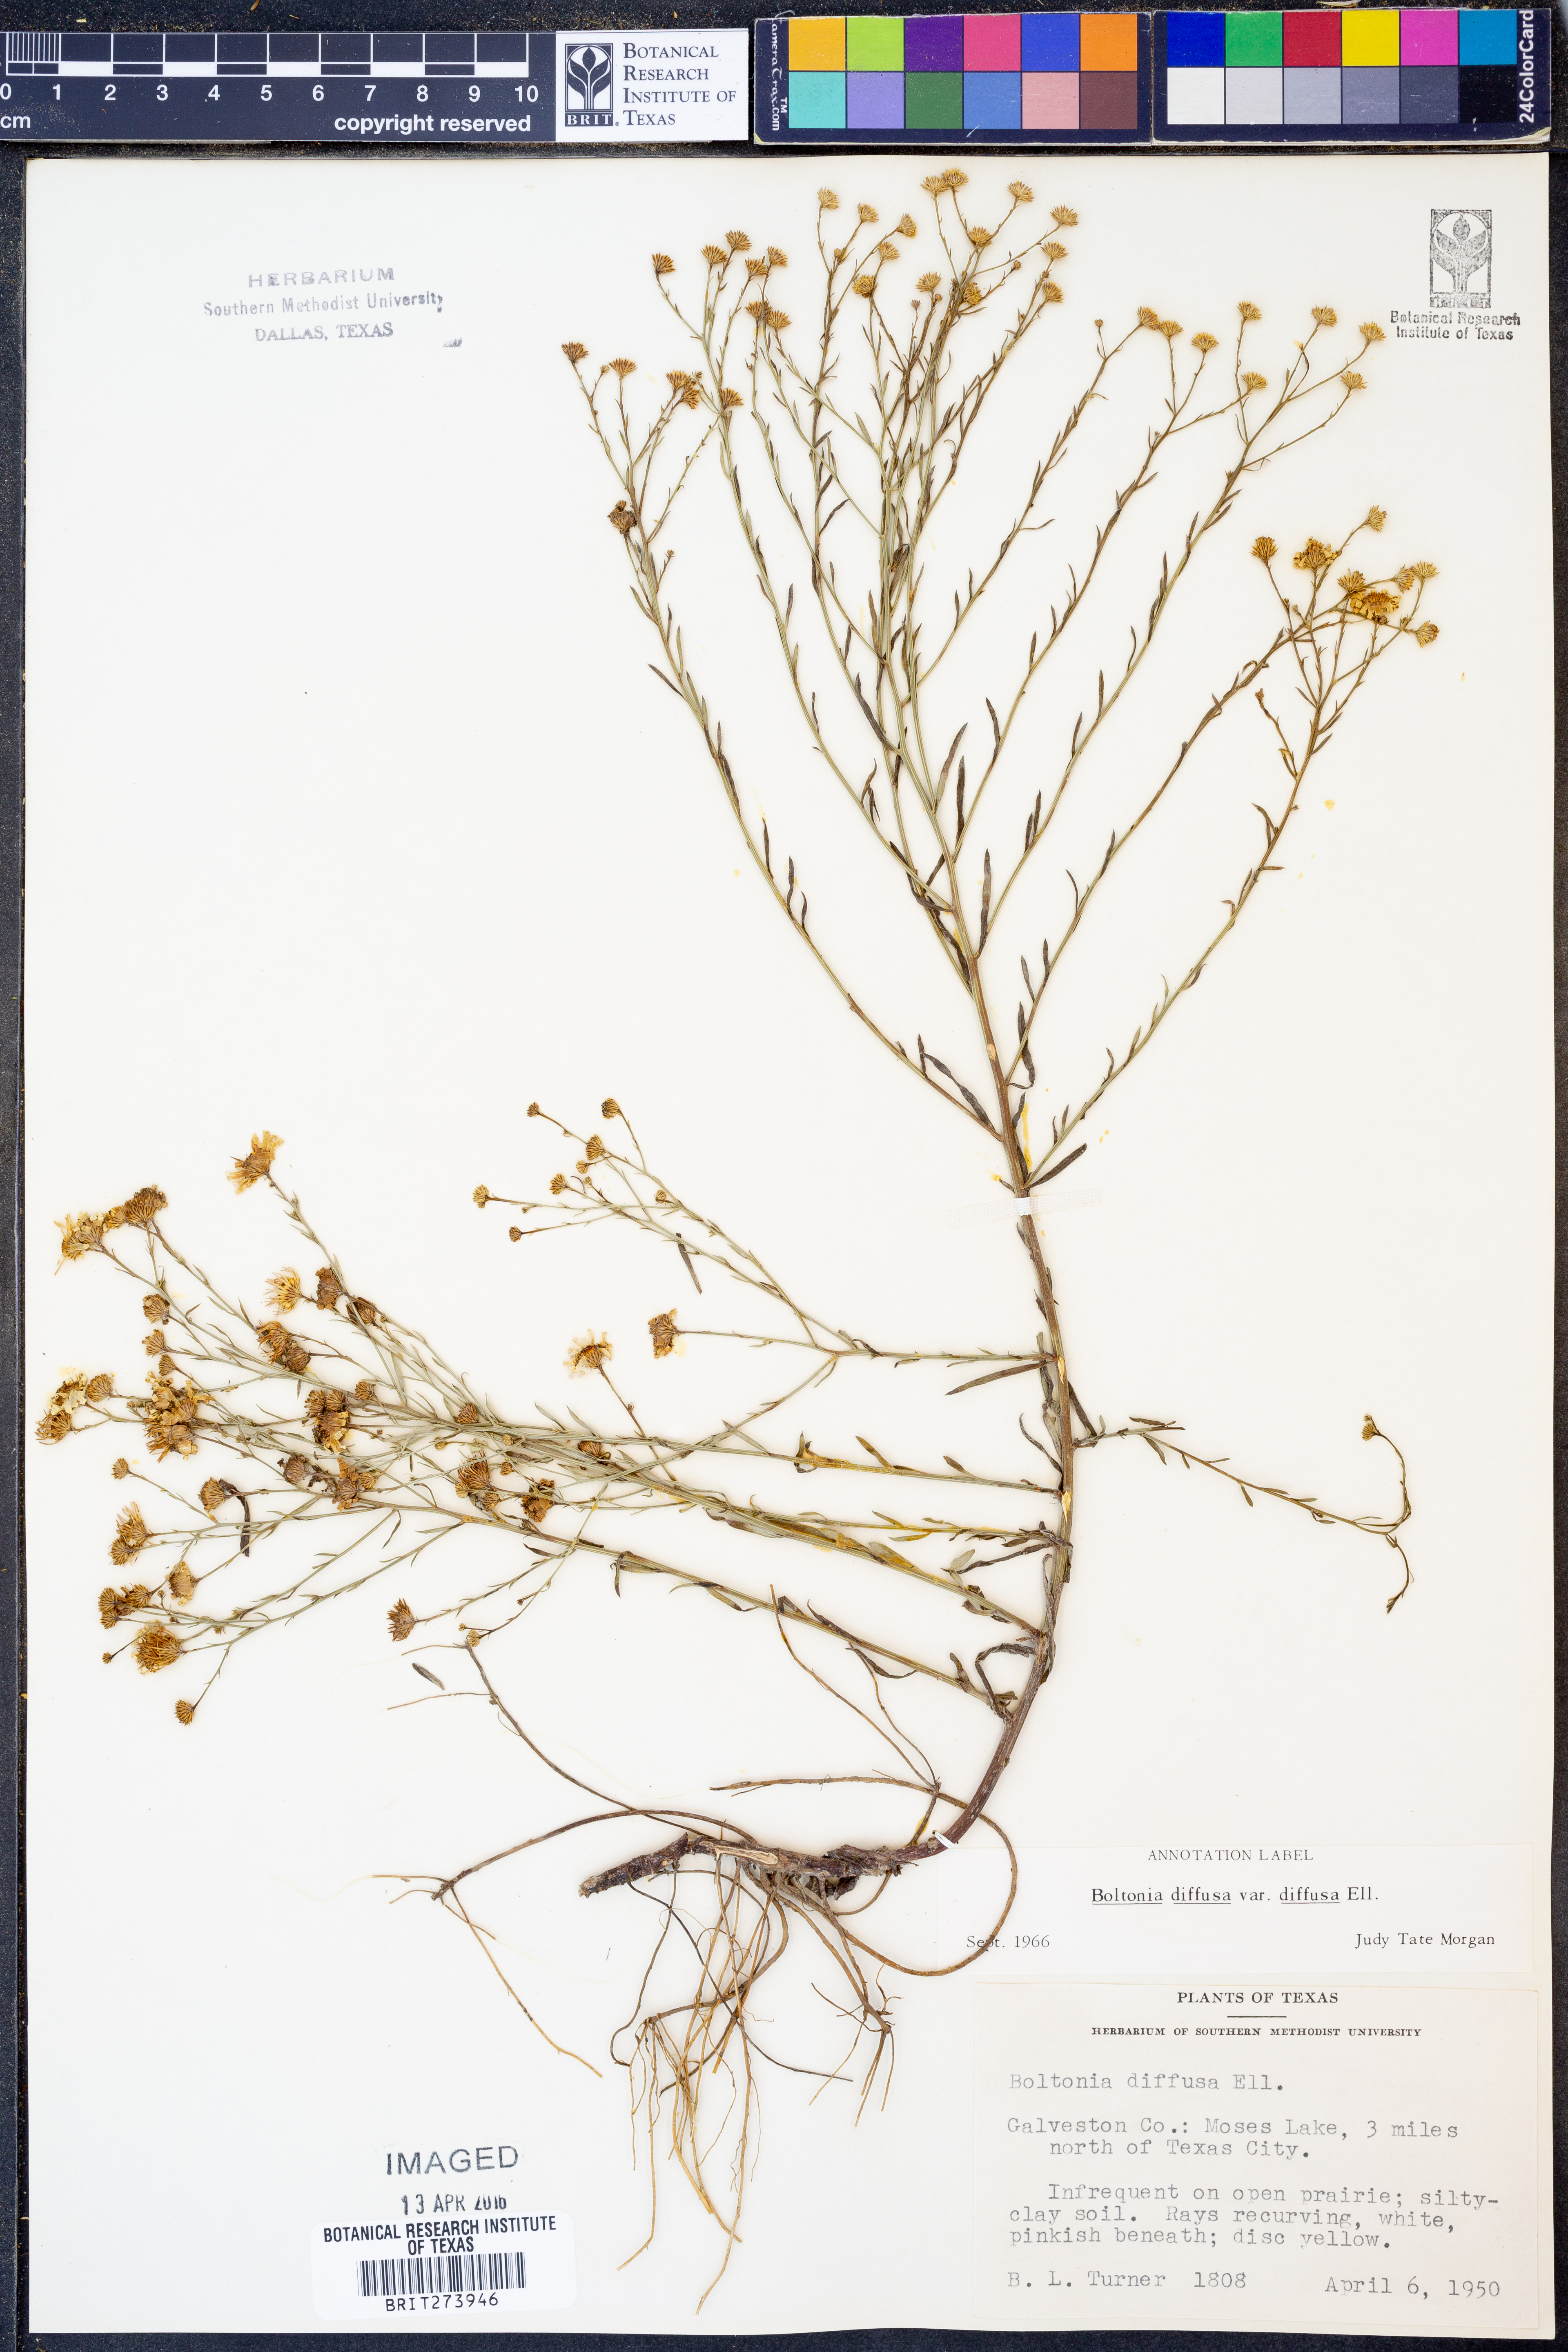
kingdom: Plantae
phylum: Tracheophyta
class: Magnoliopsida
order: Asterales
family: Asteraceae
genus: Boltonia
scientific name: Boltonia diffusa
